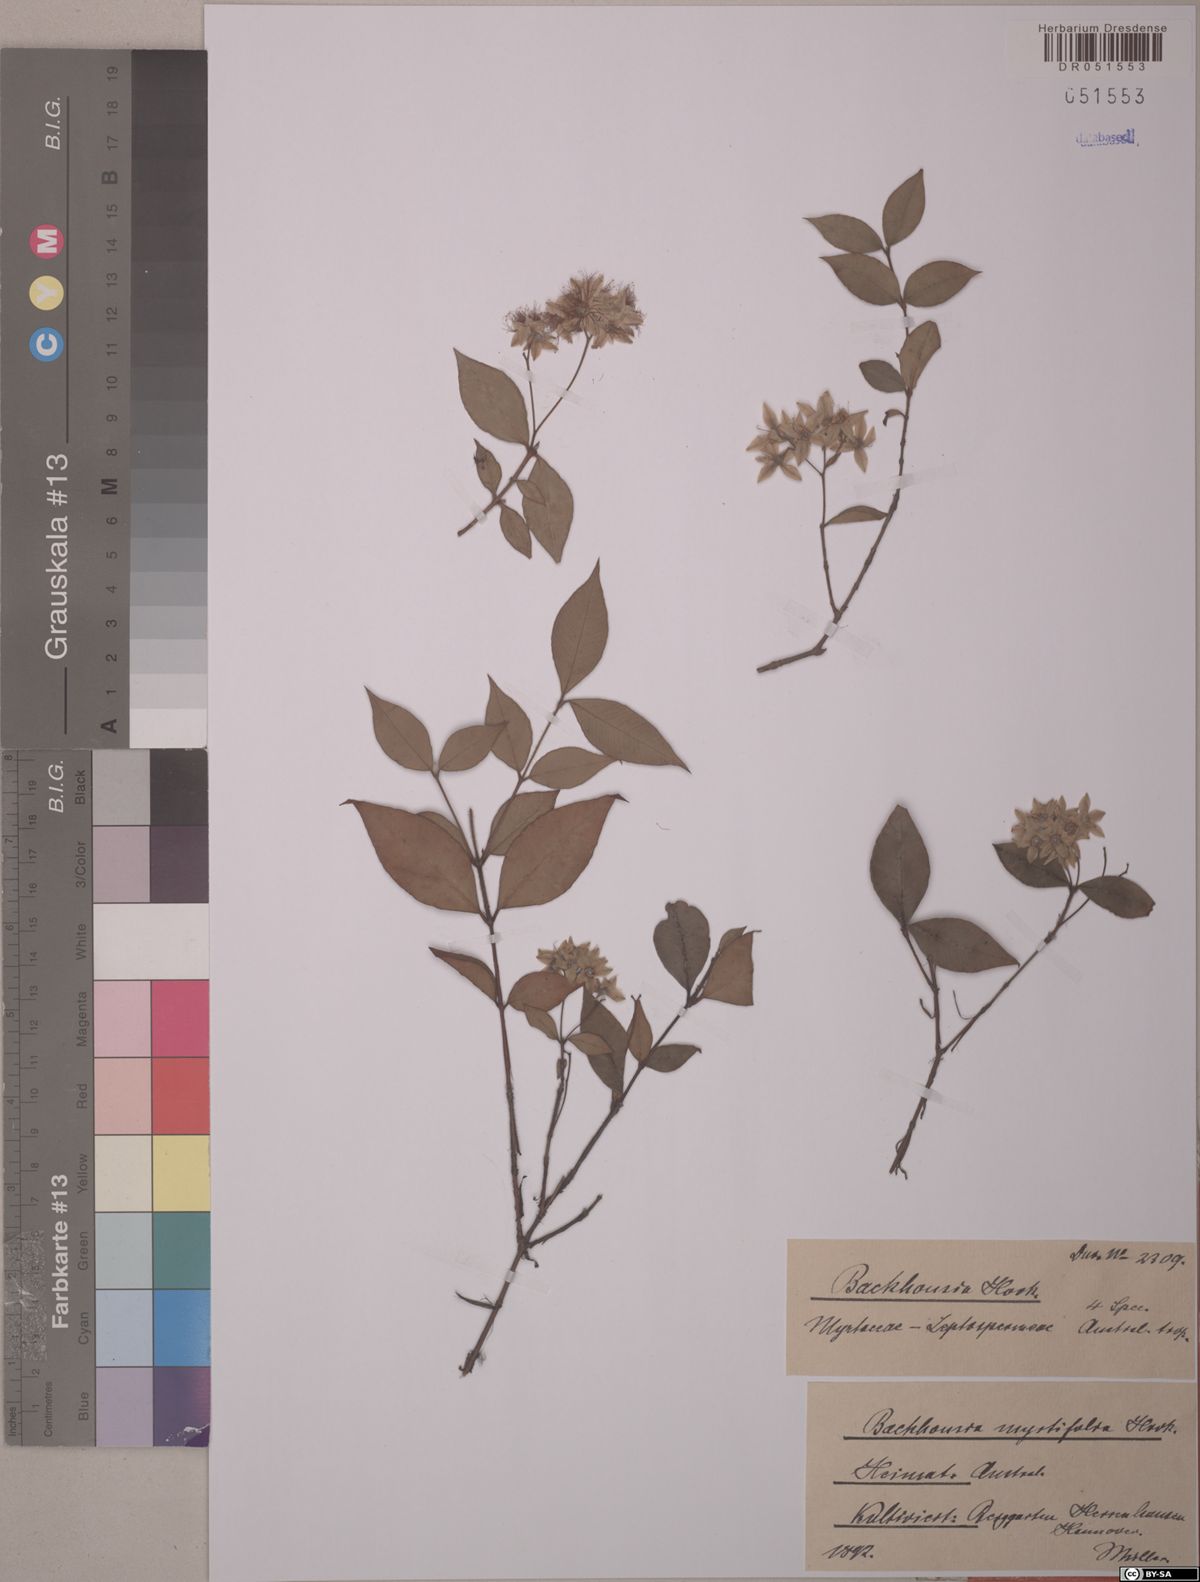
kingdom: Plantae
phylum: Tracheophyta
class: Magnoliopsida
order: Myrtales
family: Myrtaceae
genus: Backhousia
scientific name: Backhousia myrtifolia
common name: Carrol
